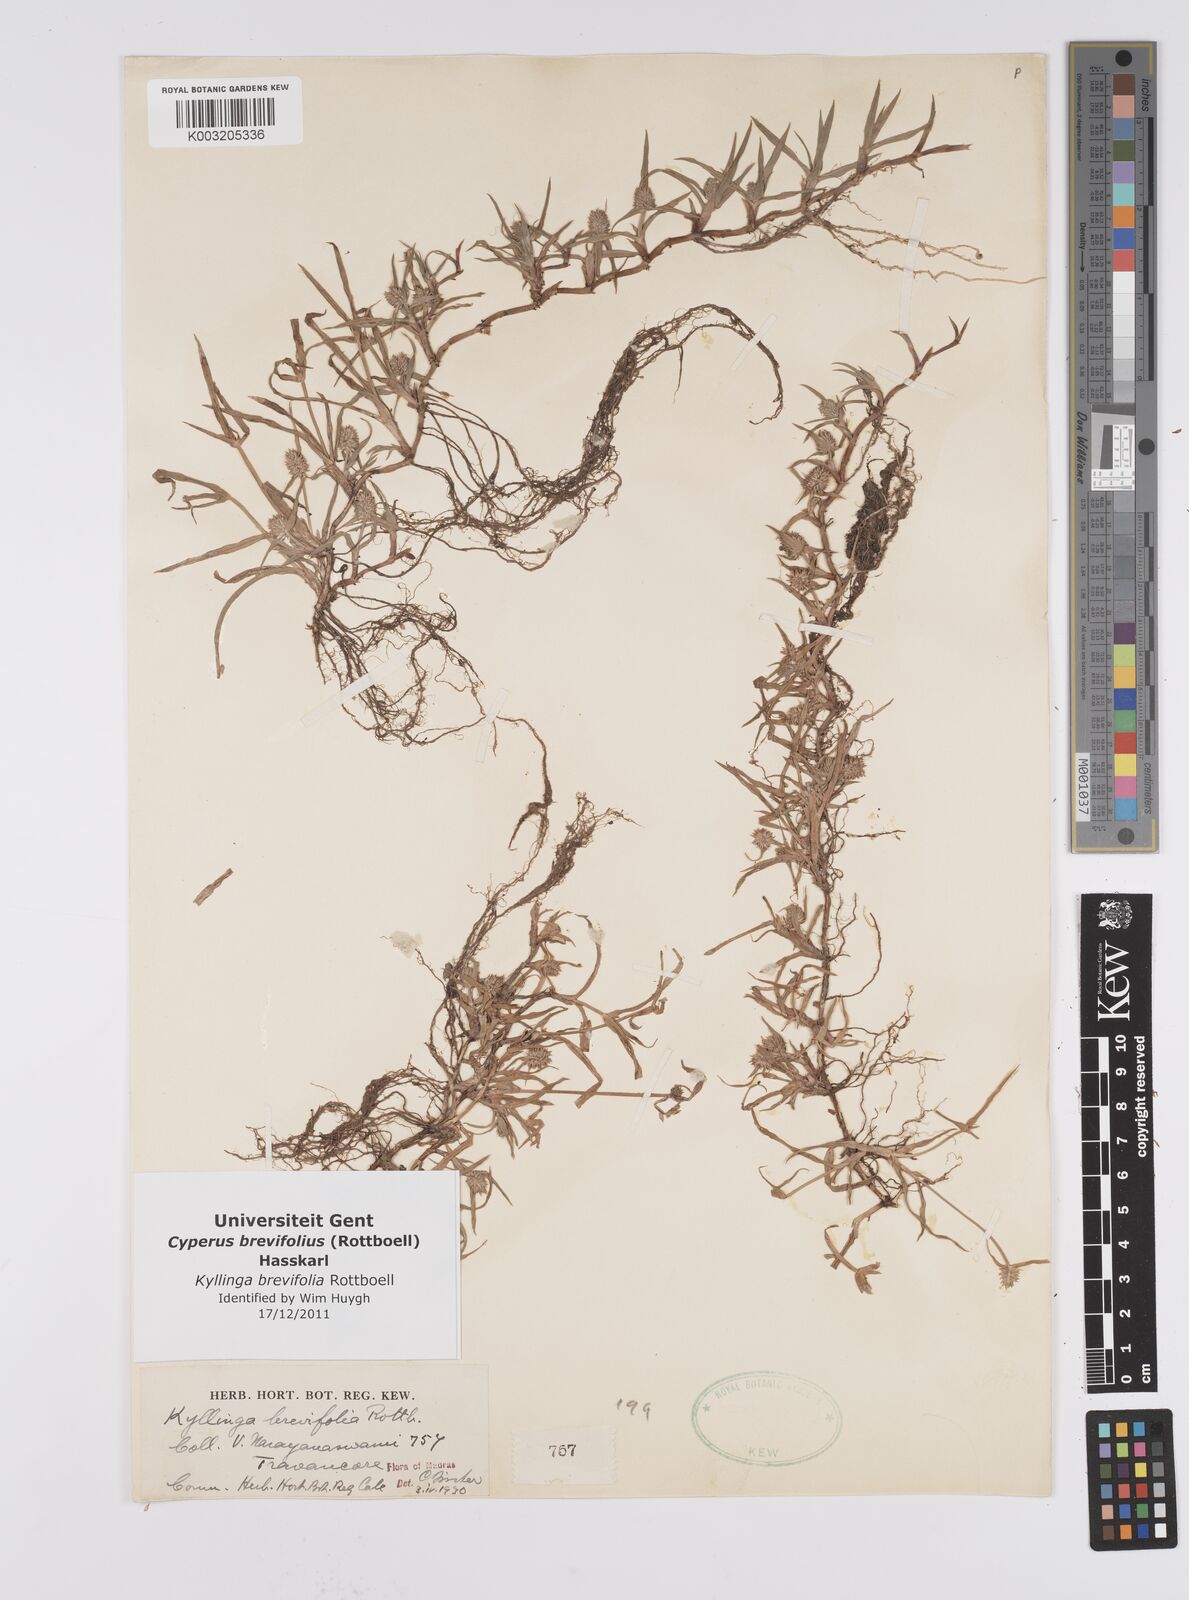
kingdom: Plantae
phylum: Tracheophyta
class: Liliopsida
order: Poales
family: Cyperaceae
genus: Cyperus
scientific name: Cyperus brevifolius
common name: Globe kyllinga
